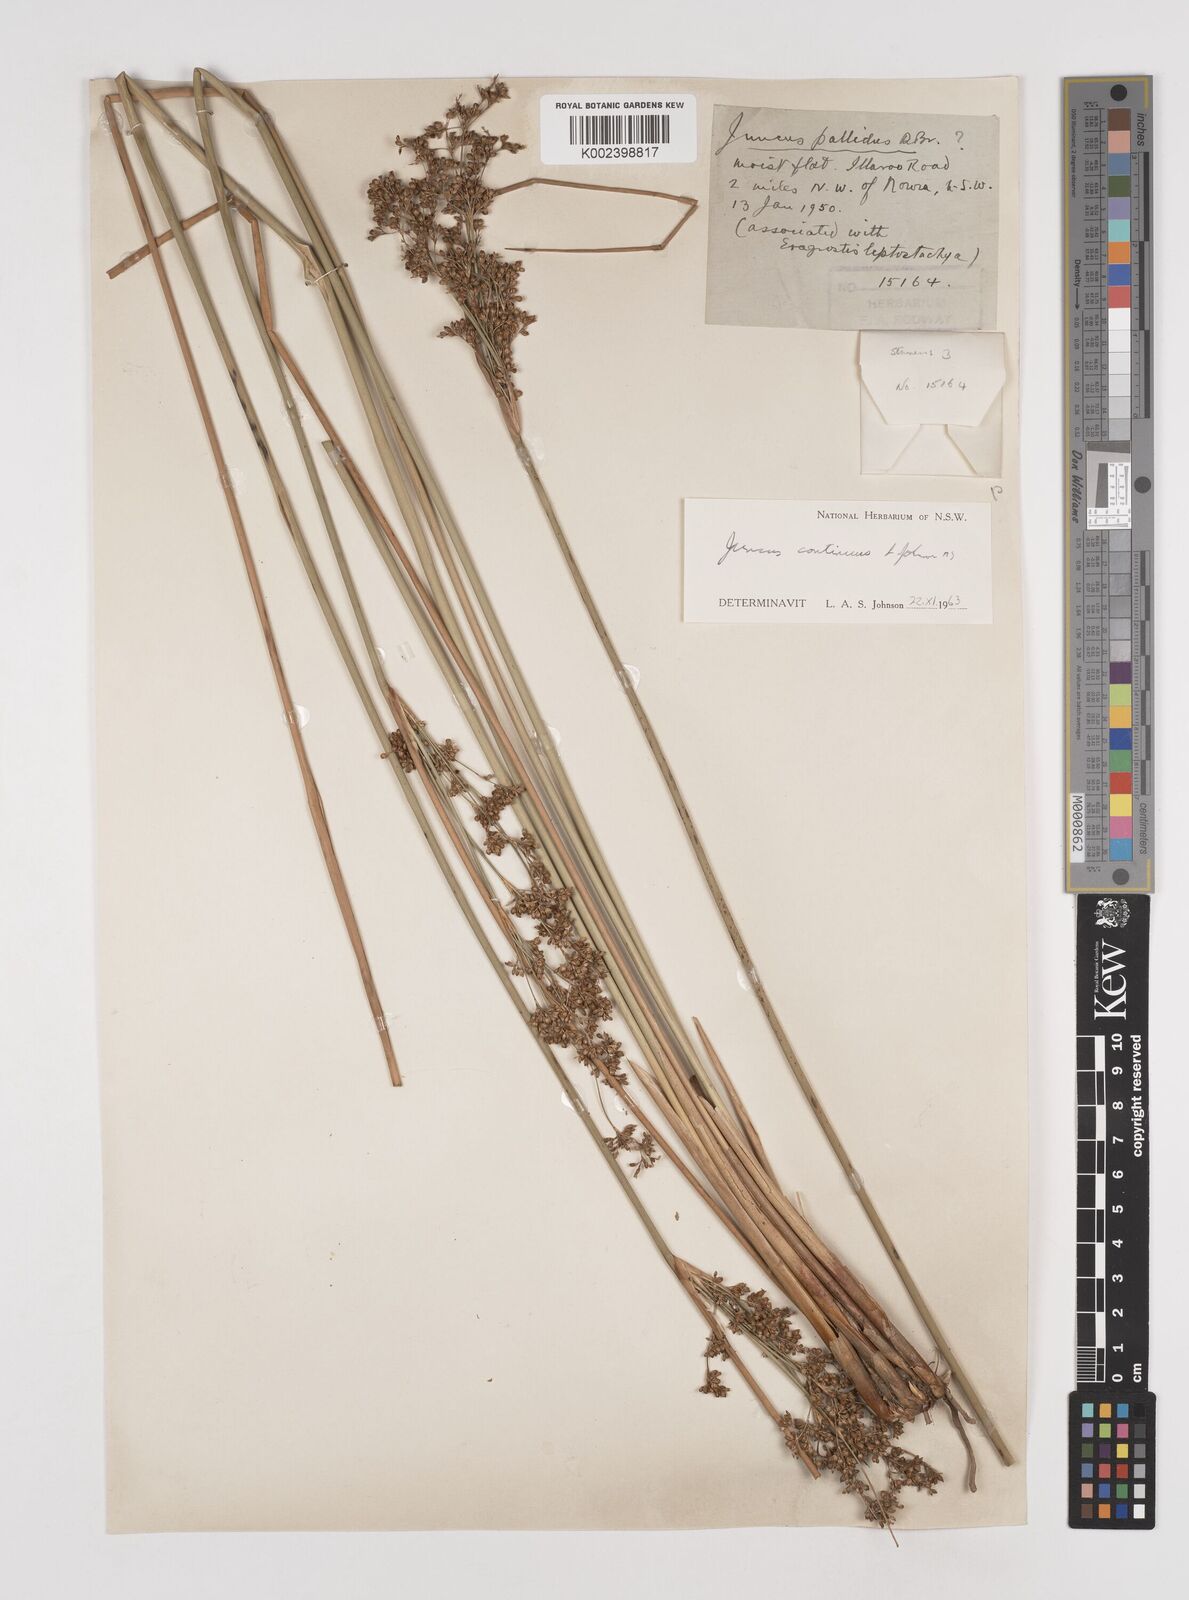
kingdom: Plantae
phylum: Tracheophyta
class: Liliopsida
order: Poales
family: Juncaceae
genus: Juncus
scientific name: Juncus
